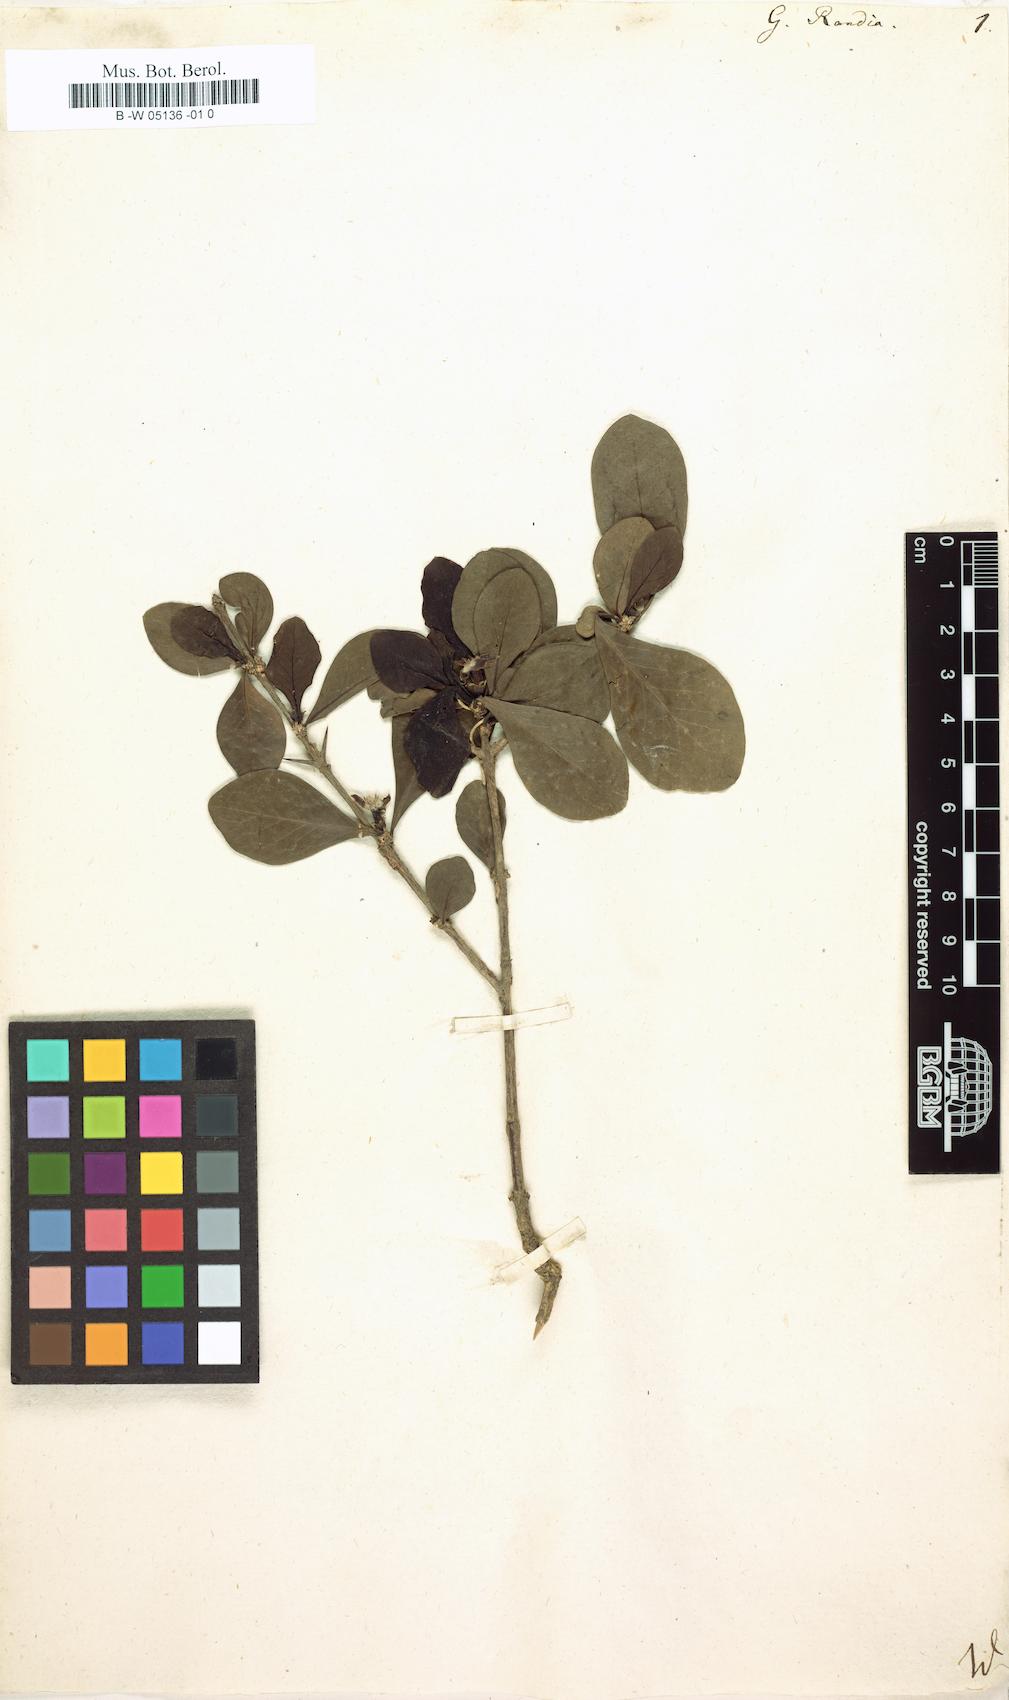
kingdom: Plantae
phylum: Tracheophyta
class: Magnoliopsida
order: Gentianales
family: Rubiaceae
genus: Randia
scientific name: Randia aculeata
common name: Inkberry
